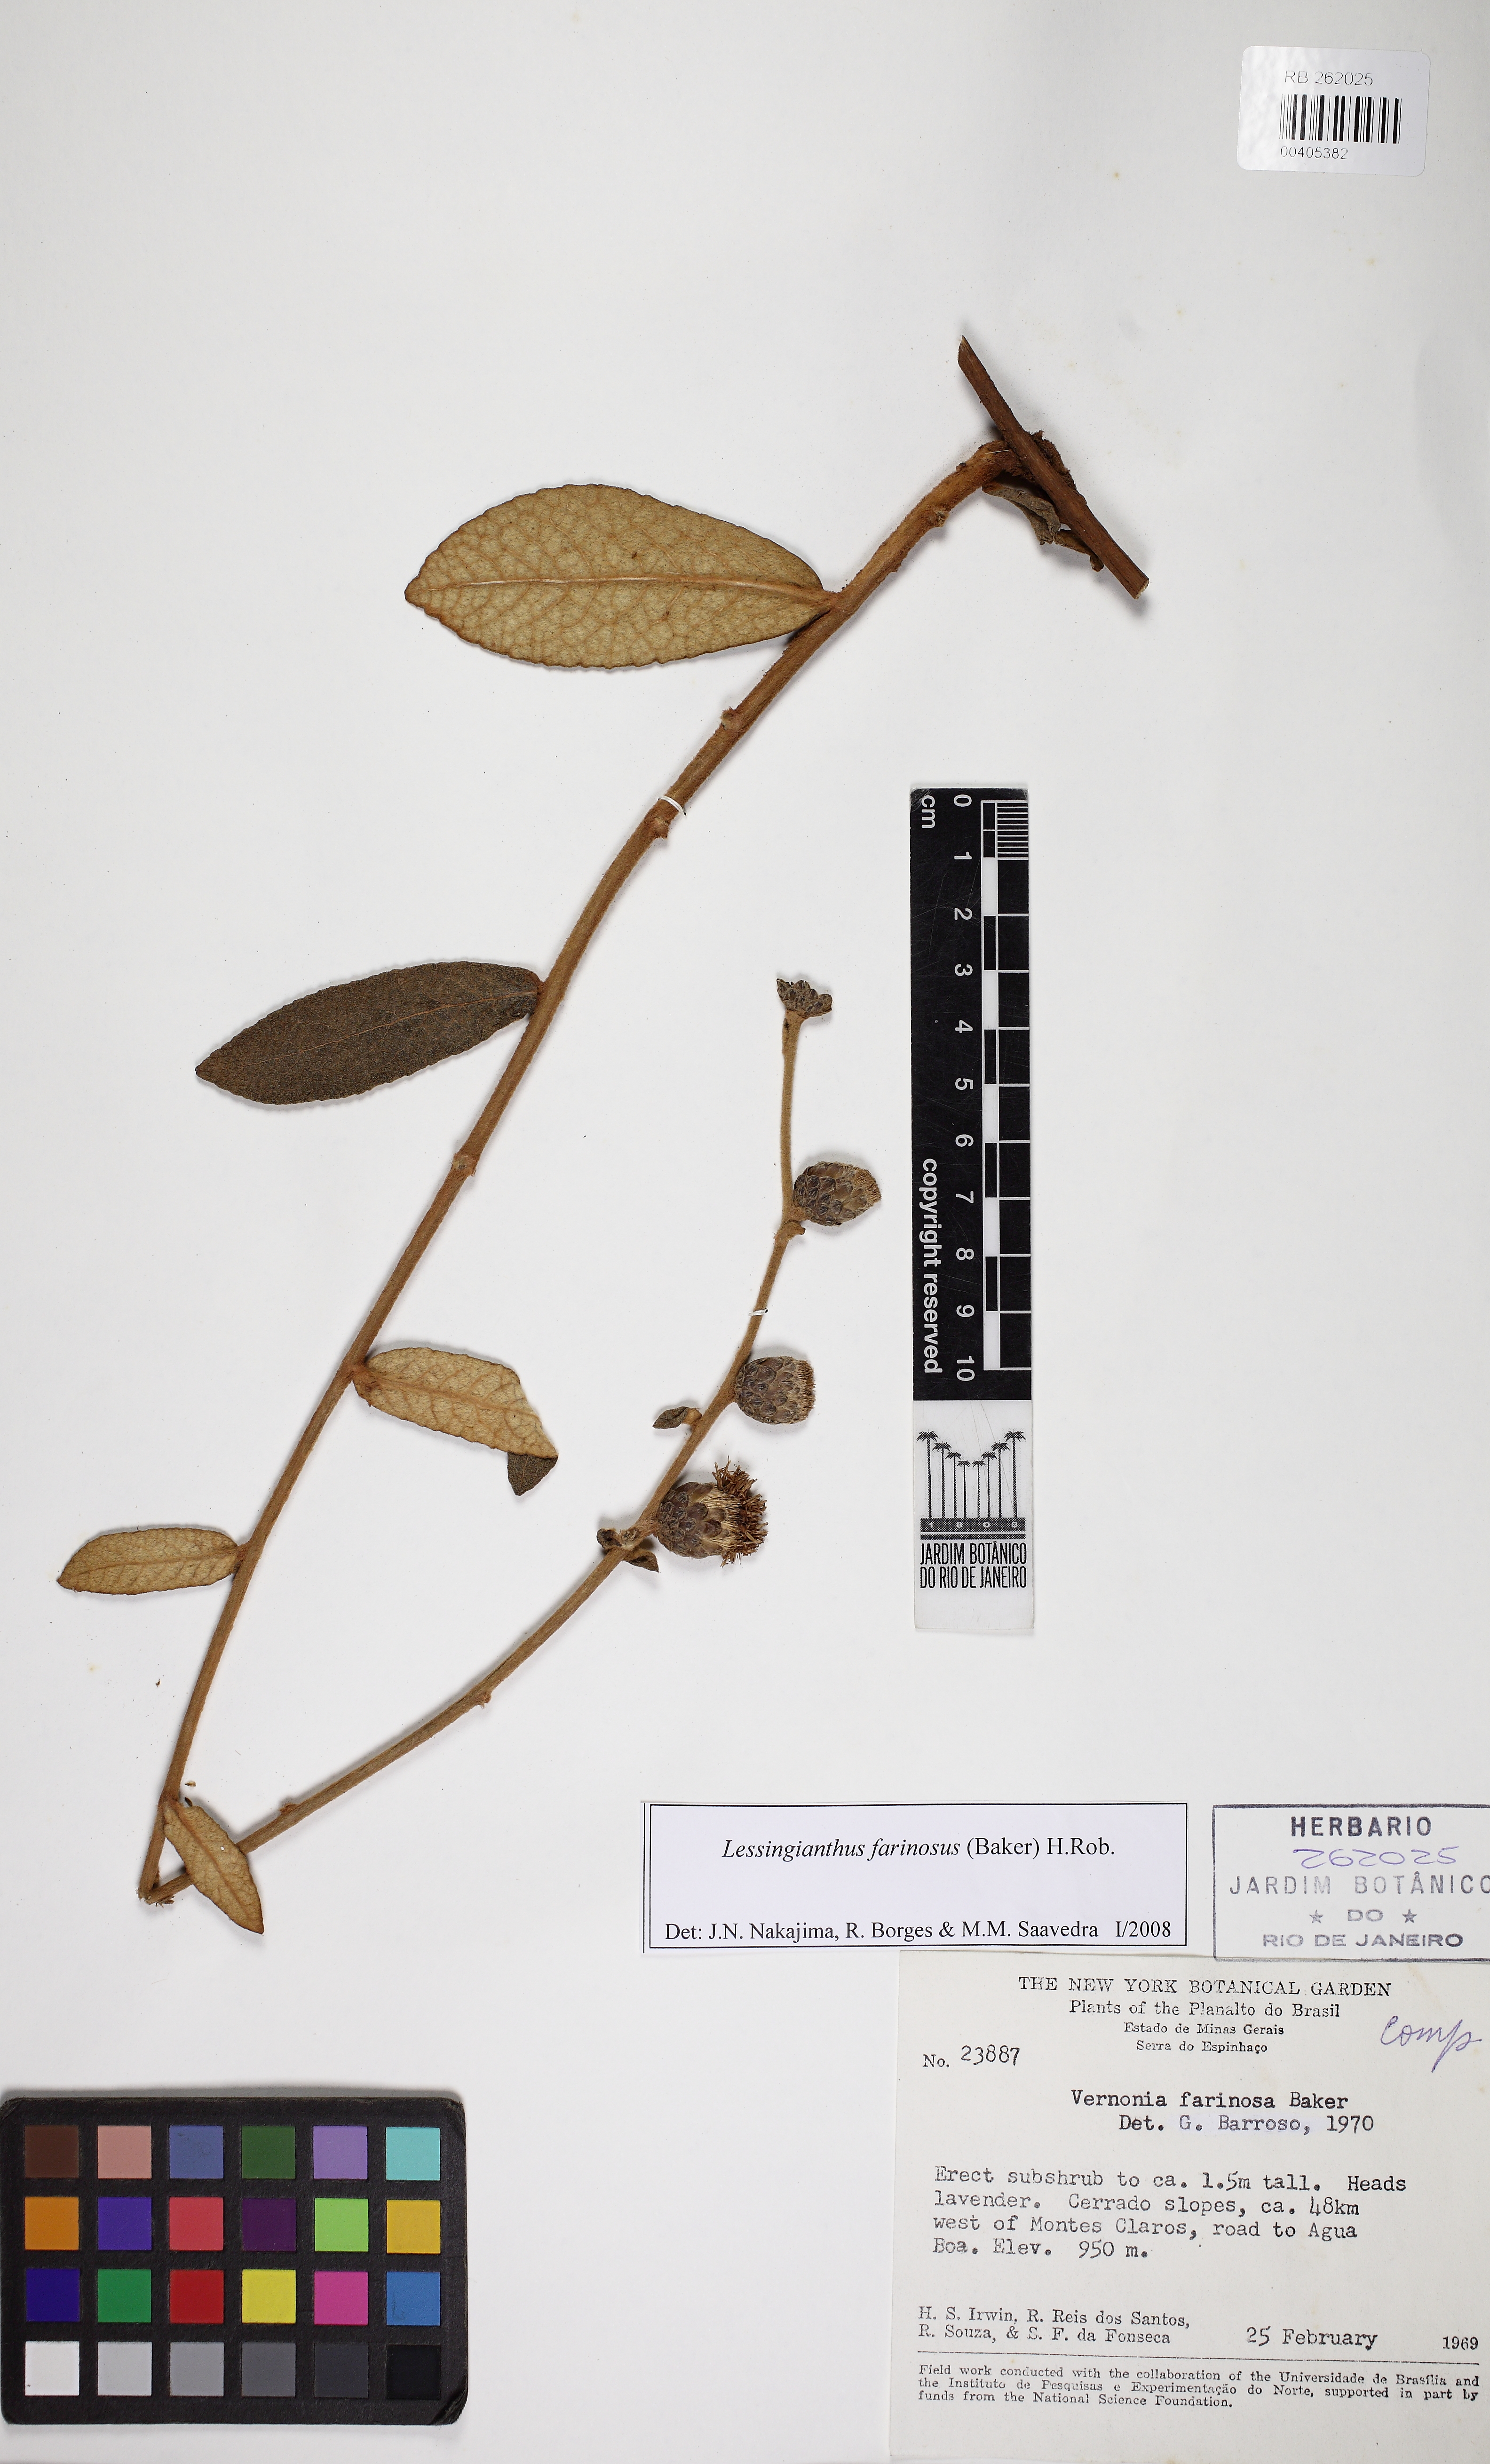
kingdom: Plantae
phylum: Tracheophyta
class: Magnoliopsida
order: Asterales
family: Asteraceae
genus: Lessingianthus
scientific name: Lessingianthus farinosus
